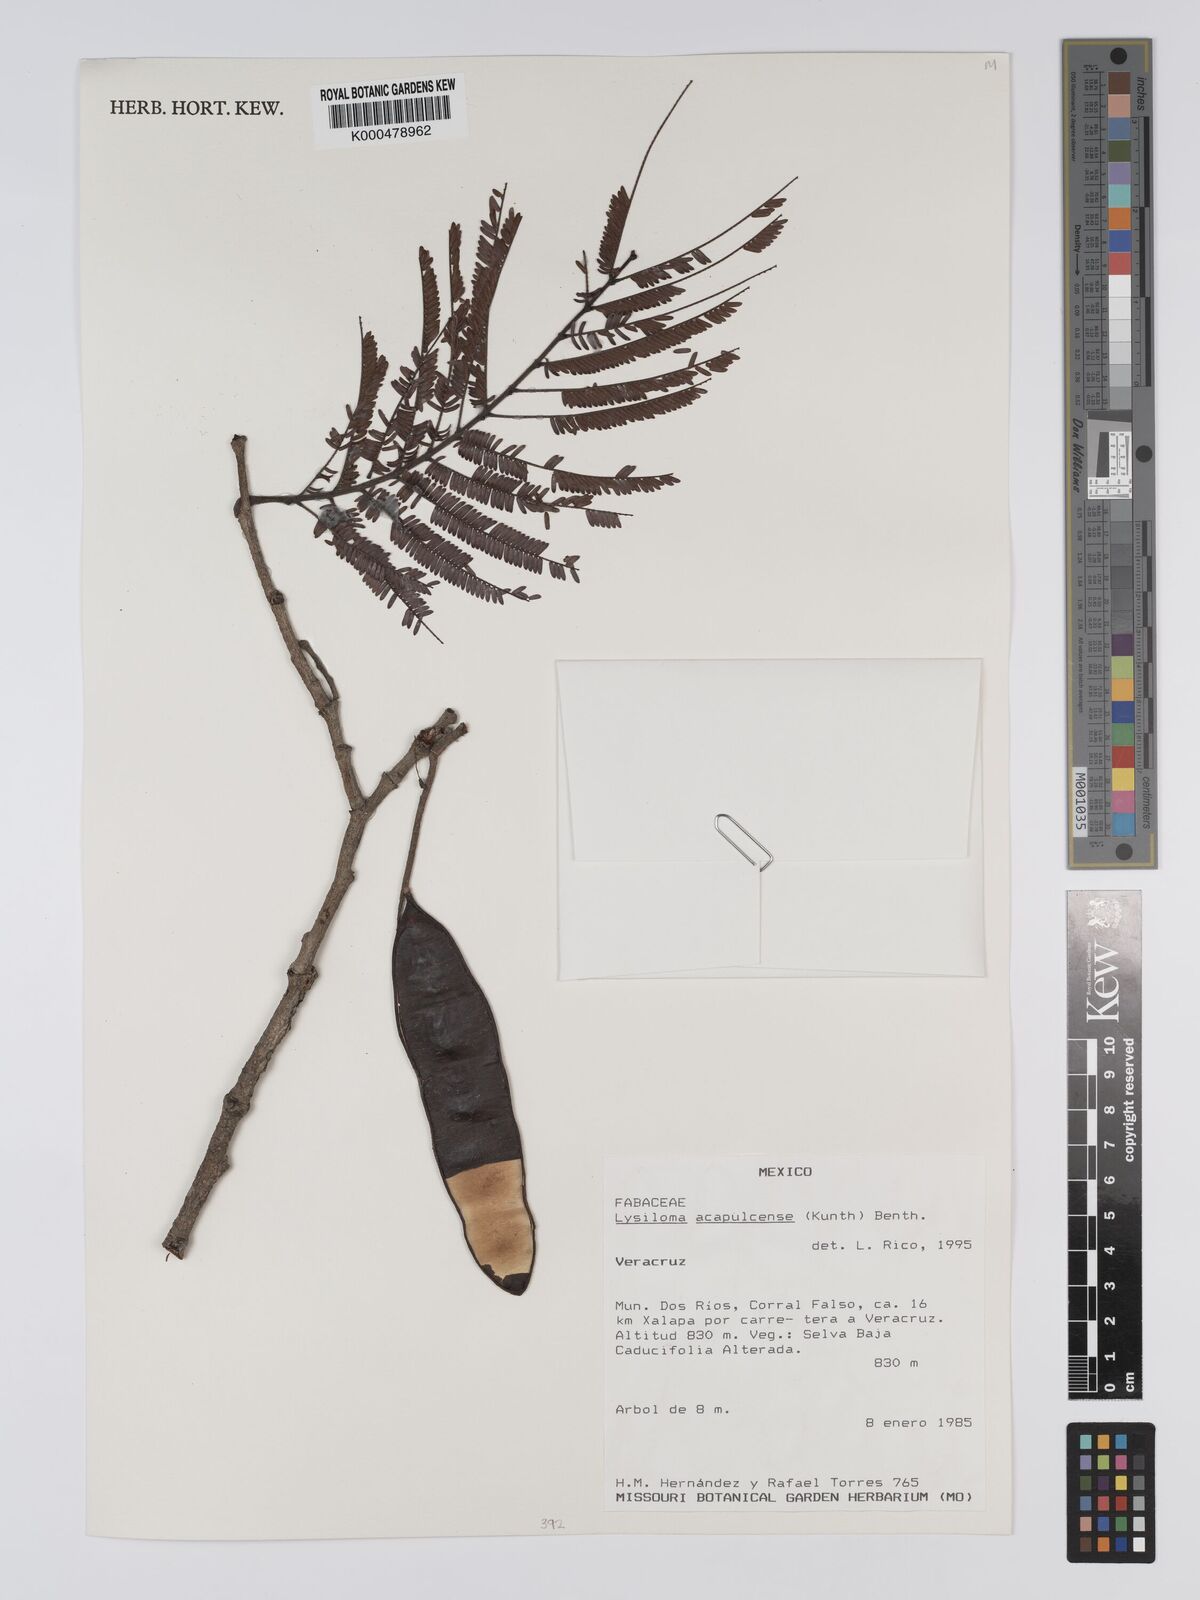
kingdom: Plantae
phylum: Tracheophyta
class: Magnoliopsida
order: Fabales
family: Fabaceae
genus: Lysiloma
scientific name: Lysiloma
